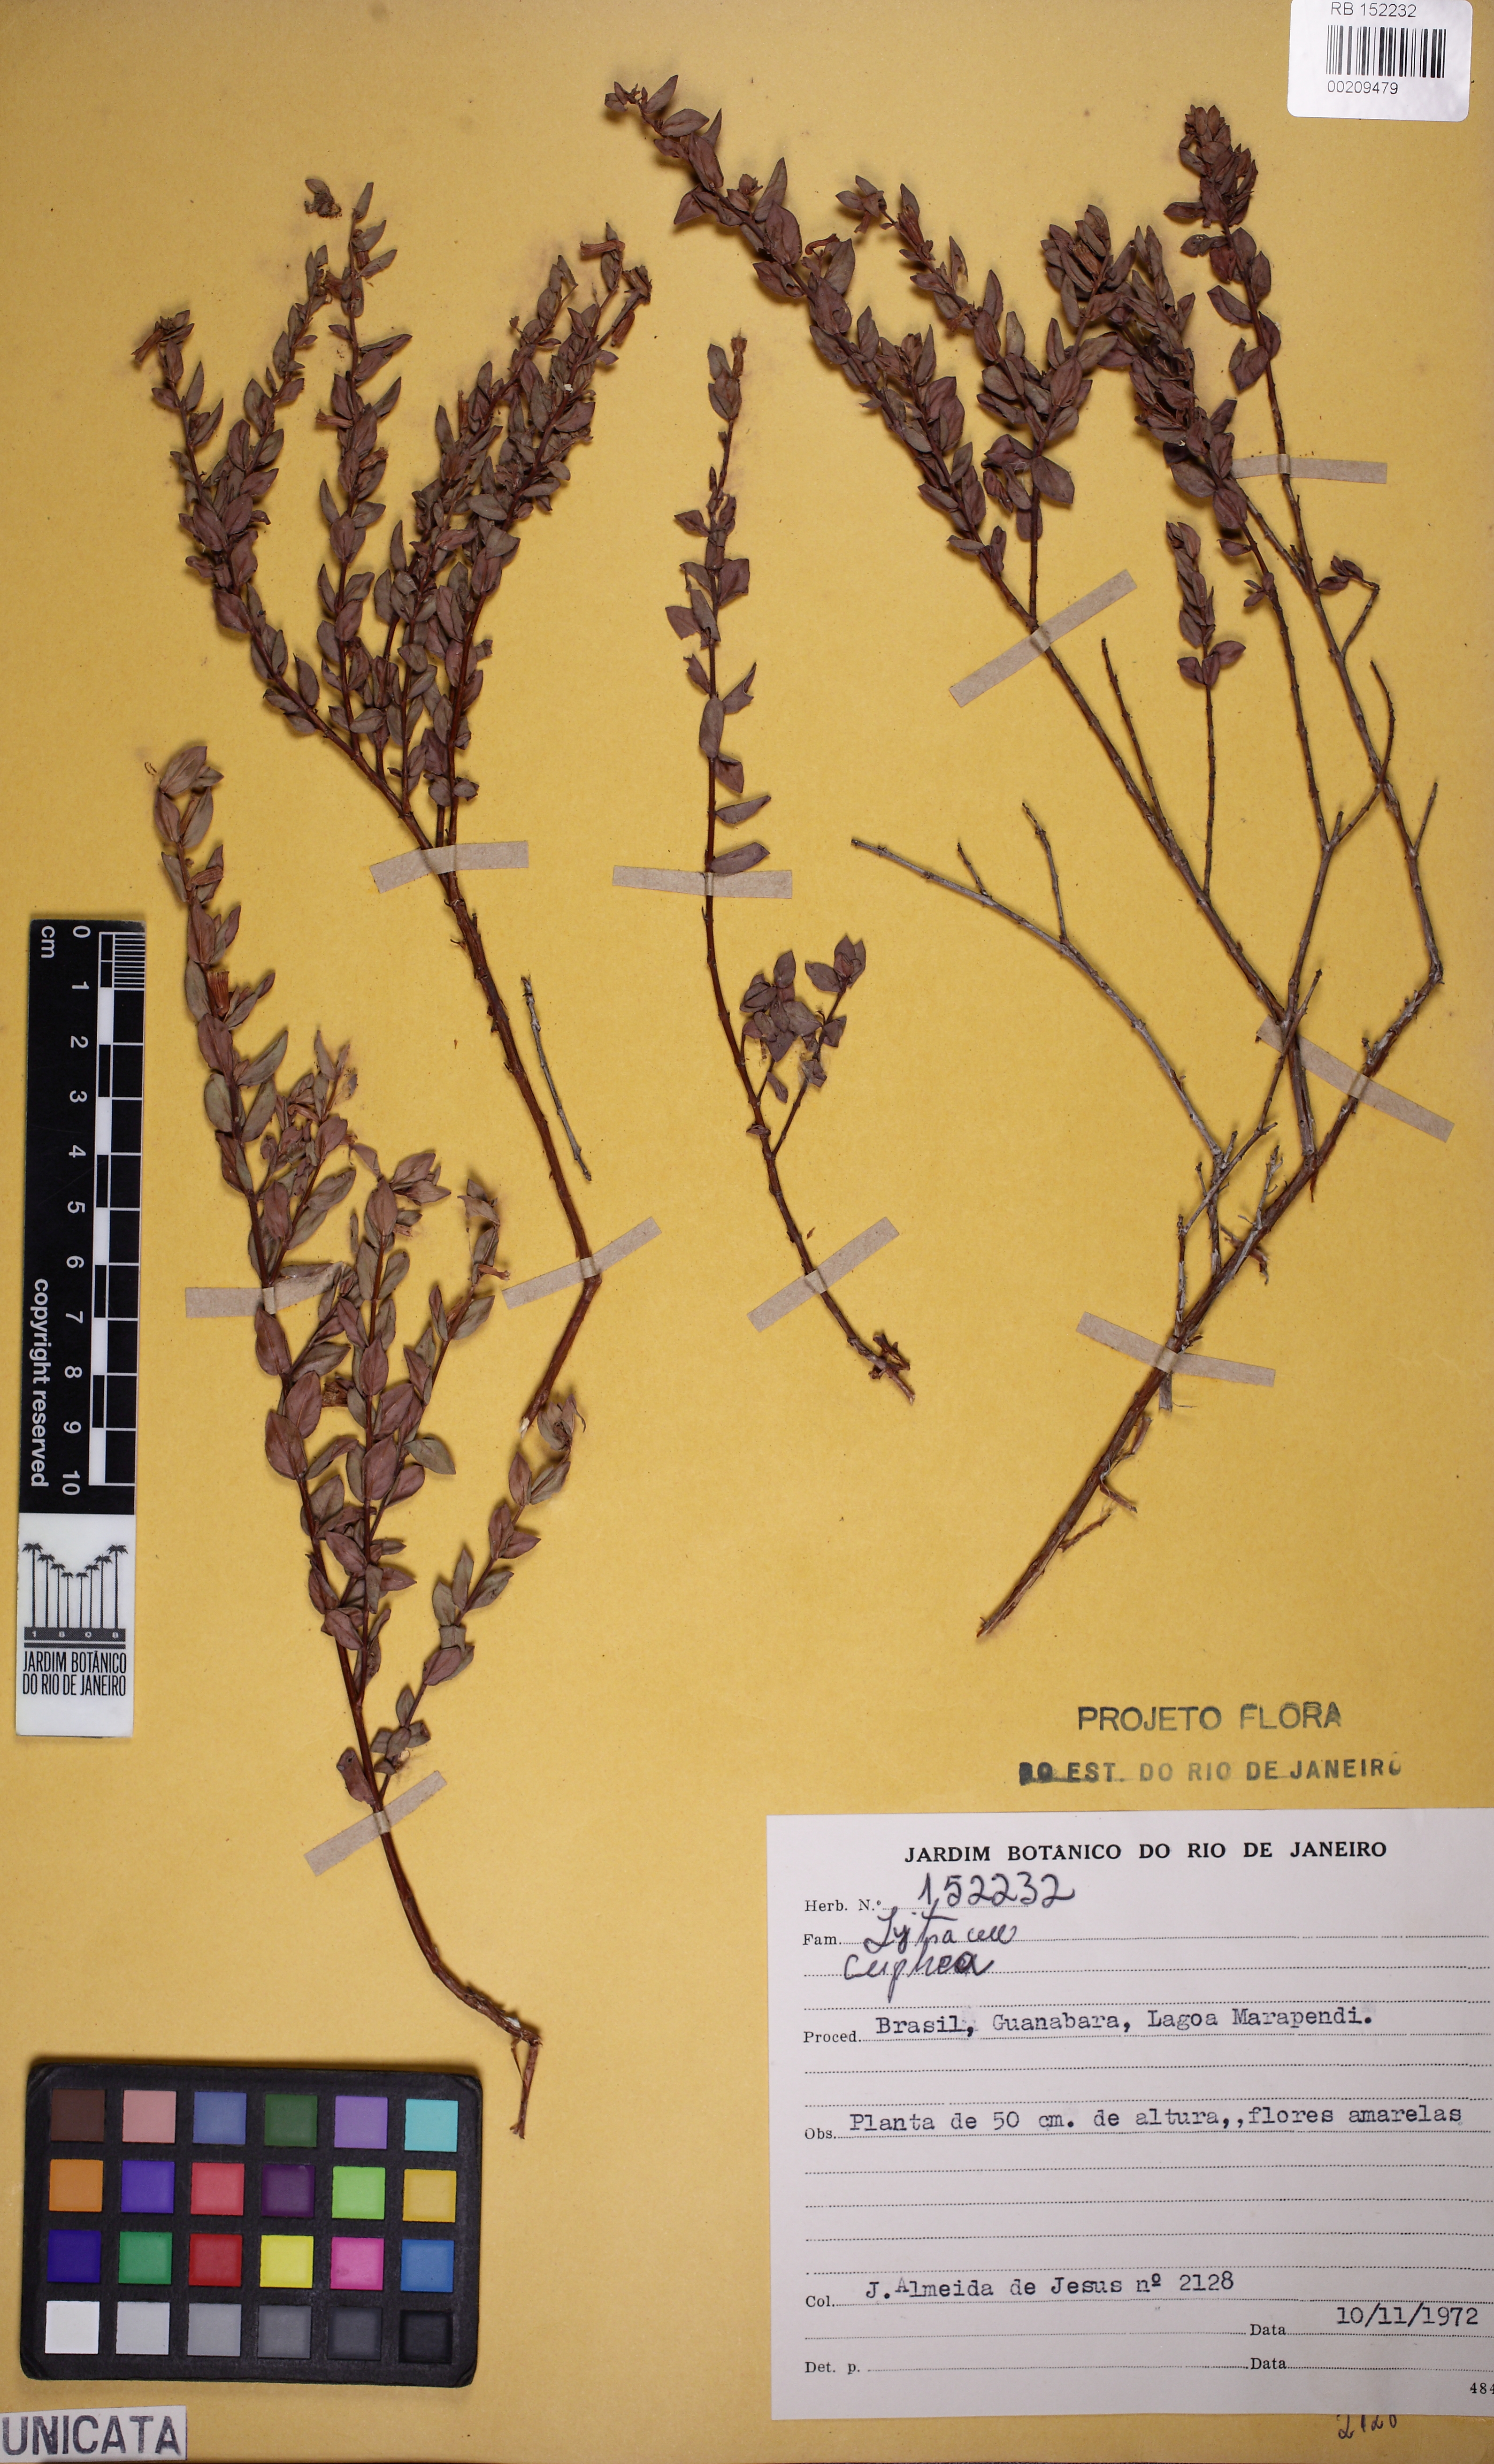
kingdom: Plantae
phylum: Tracheophyta
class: Magnoliopsida
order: Myrtales
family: Lythraceae
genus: Cuphea
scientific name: Cuphea
